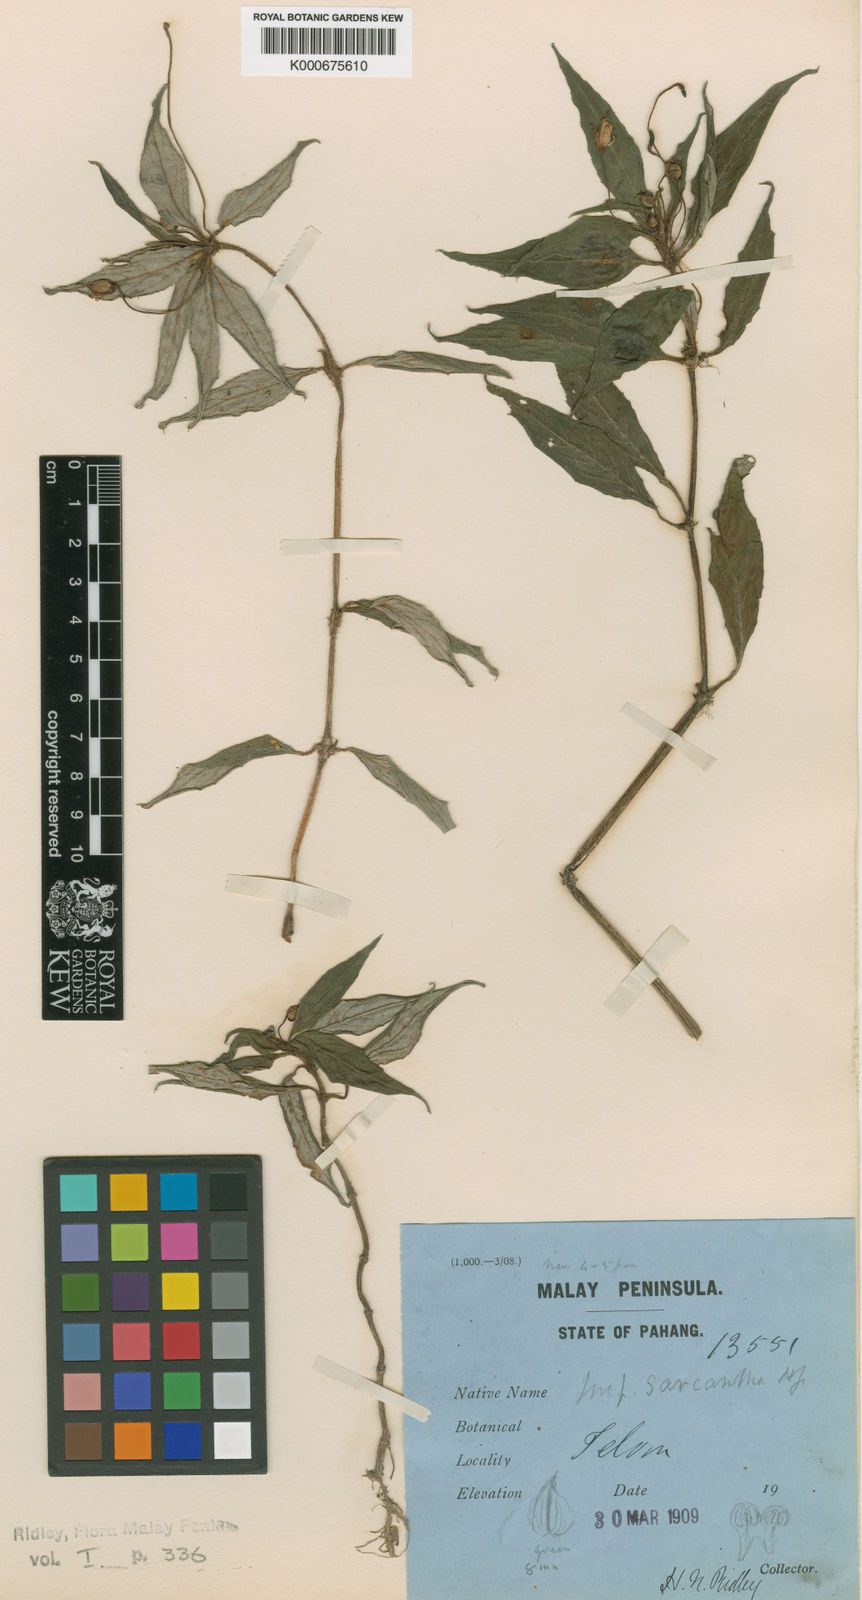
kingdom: Plantae
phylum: Tracheophyta
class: Magnoliopsida
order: Ericales
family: Balsaminaceae
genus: Impatiens
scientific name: Impatiens
